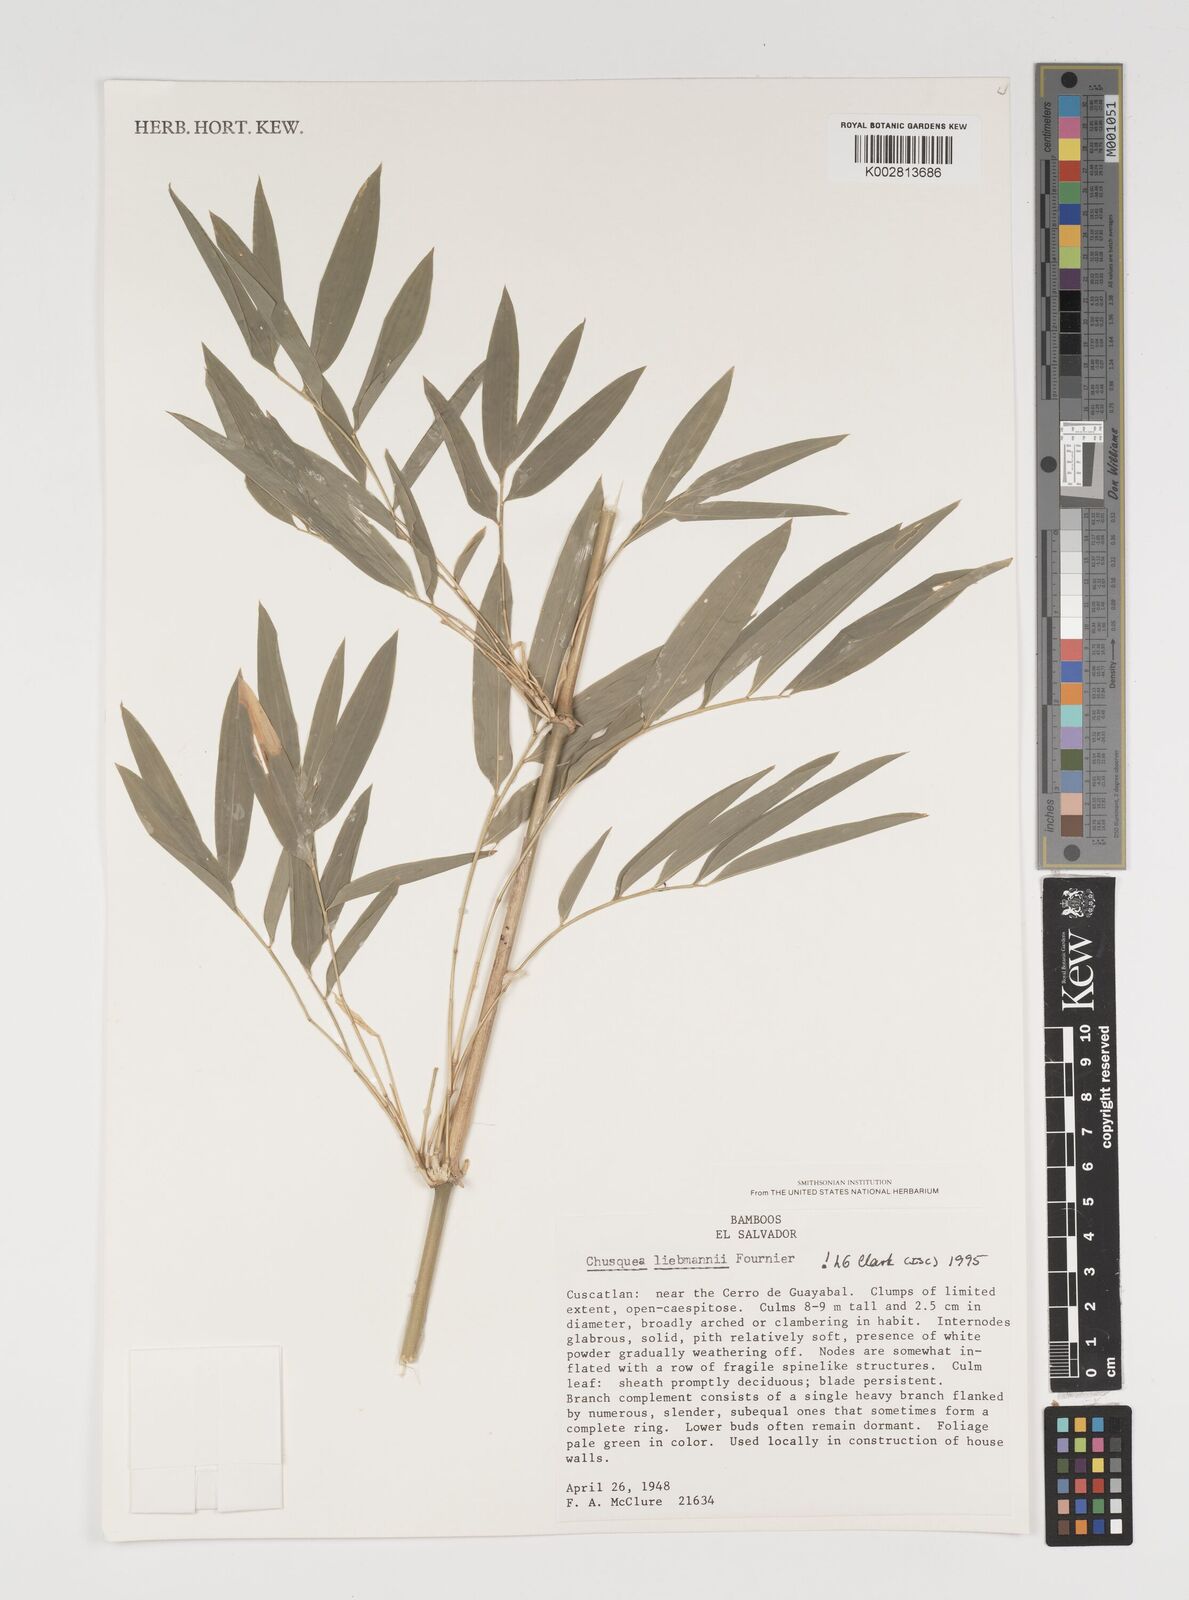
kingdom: Plantae
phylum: Tracheophyta
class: Liliopsida
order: Poales
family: Poaceae
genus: Chusquea
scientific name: Chusquea liebmannii
